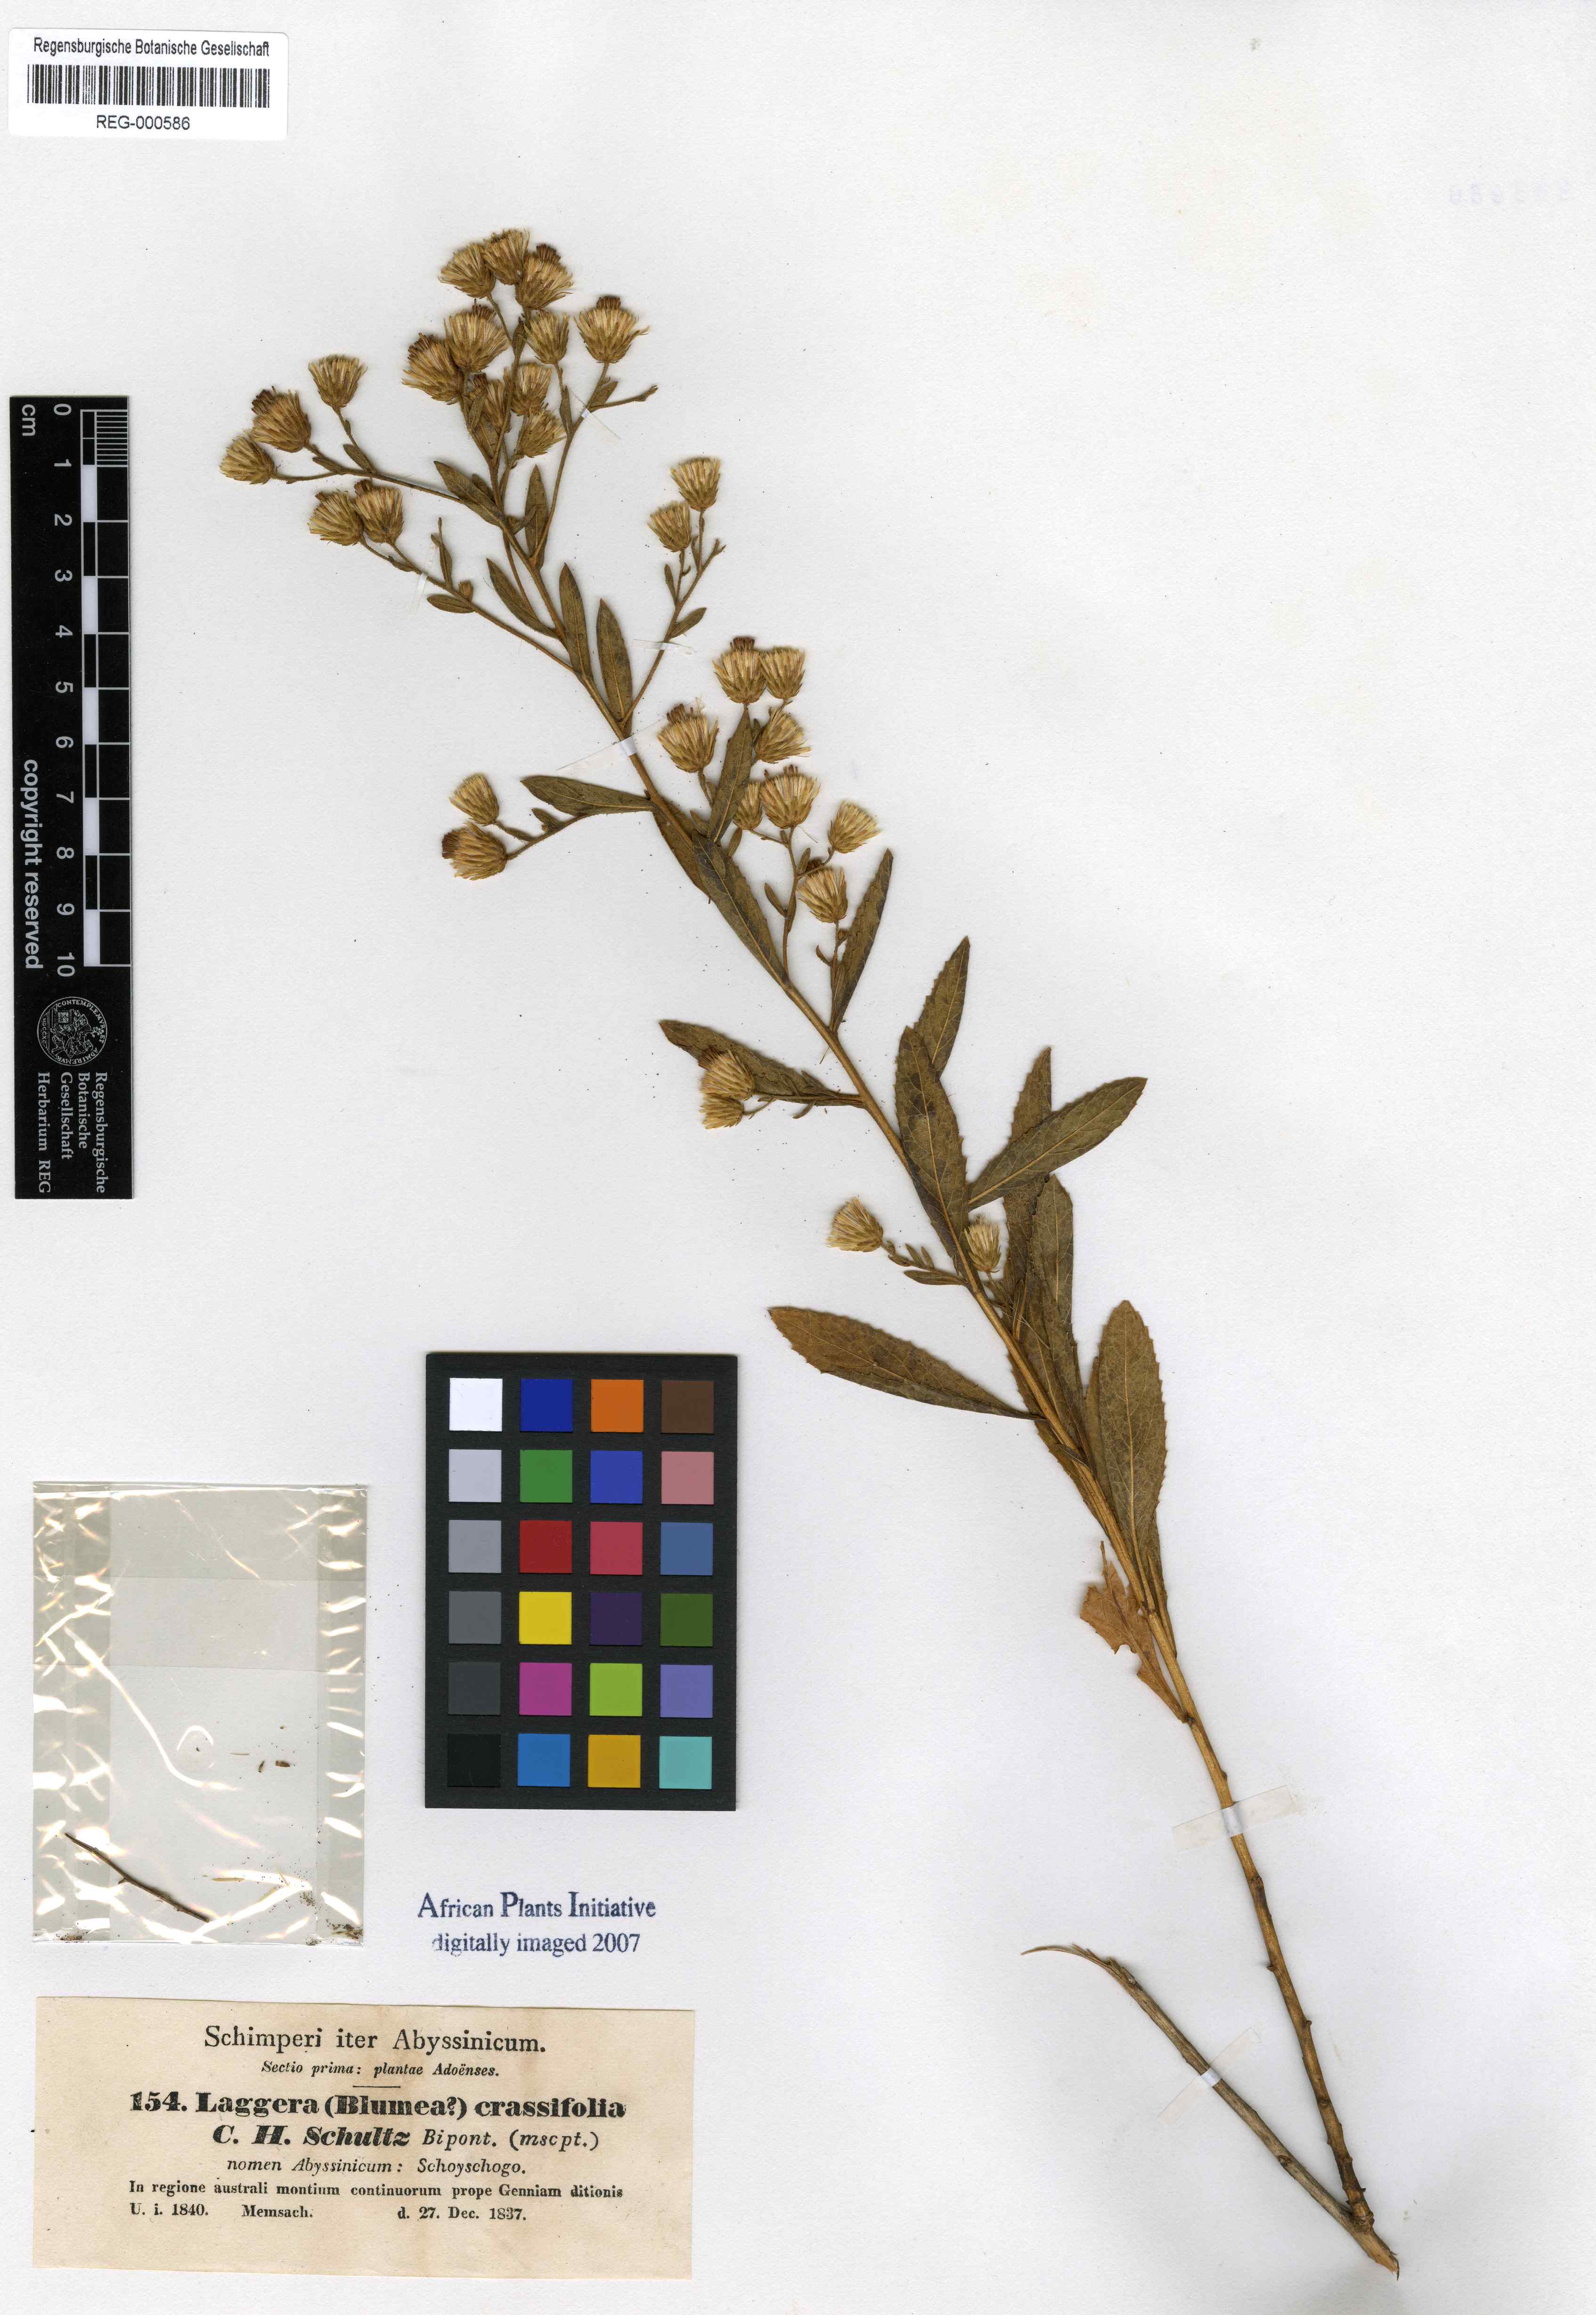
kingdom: Plantae
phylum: Tracheophyta
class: Magnoliopsida
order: Asterales
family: Asteraceae
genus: Laggera
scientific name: Laggera crassifolia
